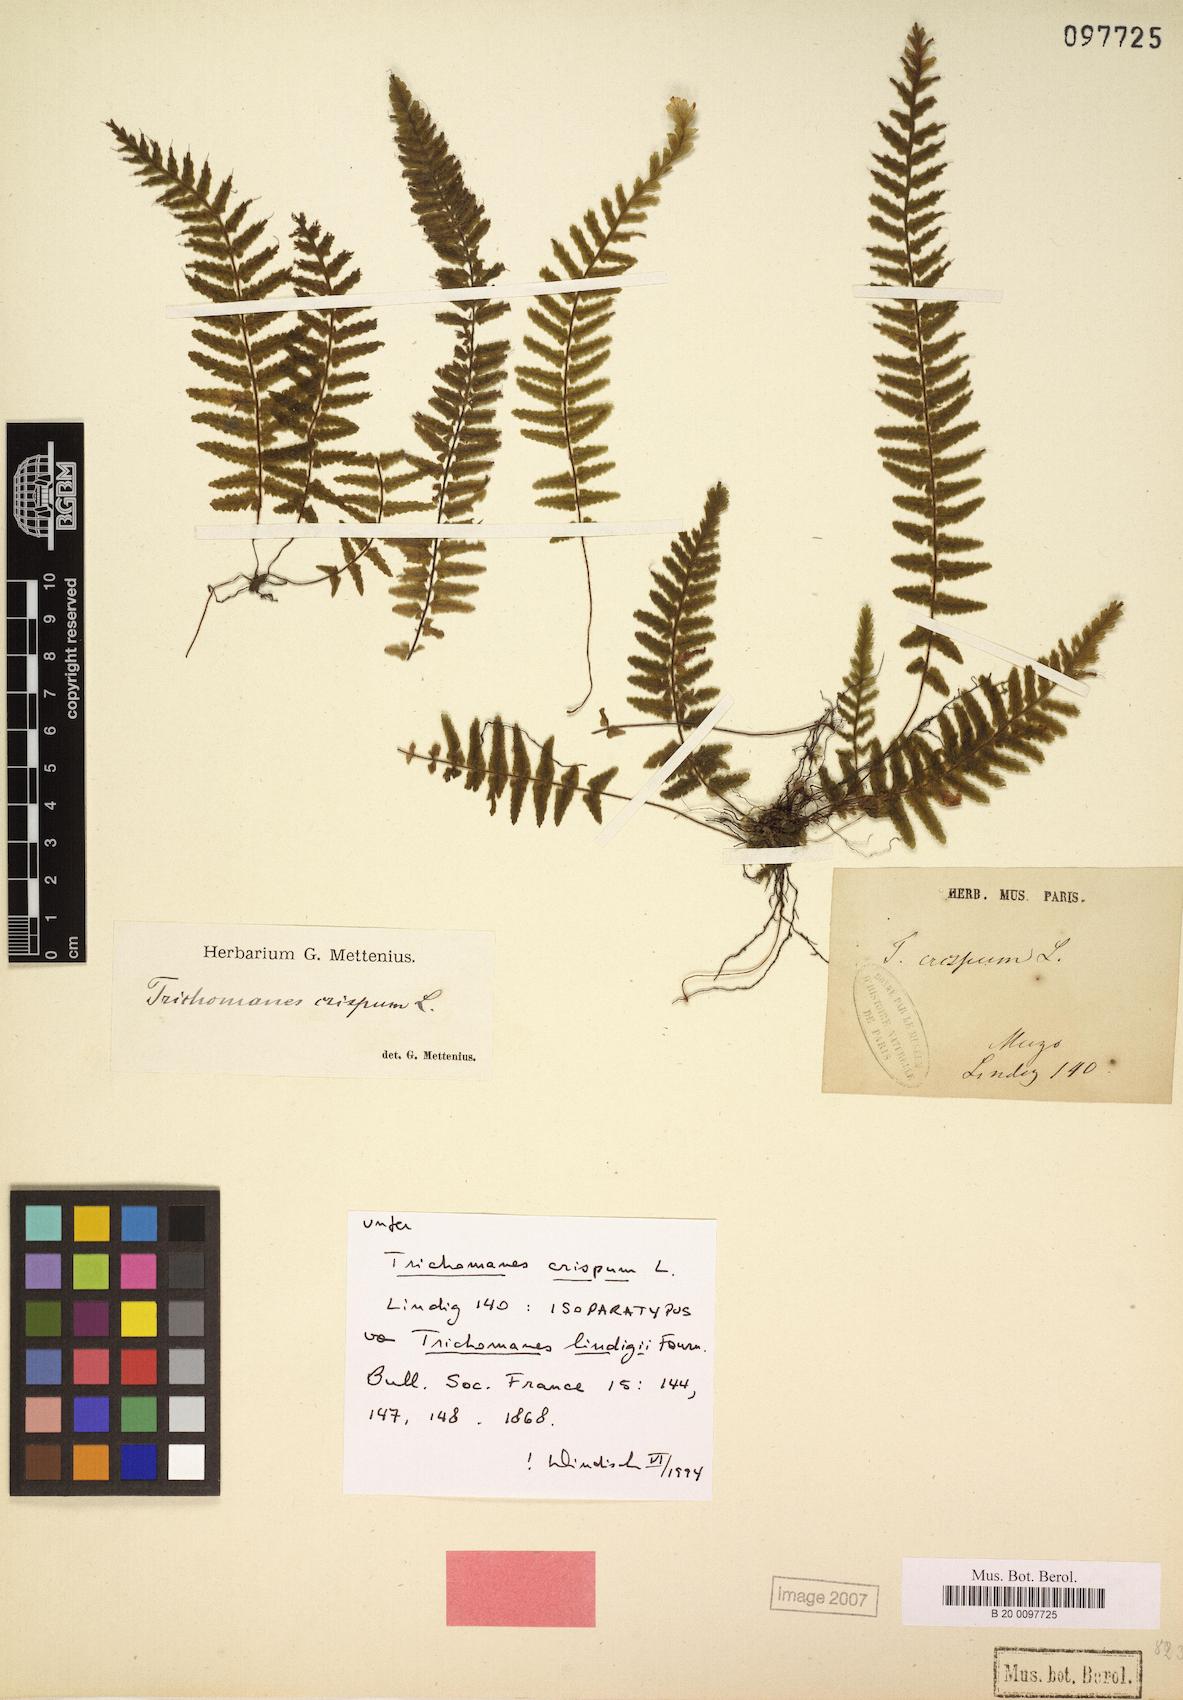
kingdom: Plantae
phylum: Tracheophyta
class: Polypodiopsida
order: Hymenophyllales
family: Hymenophyllaceae
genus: Trichomanes
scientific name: Trichomanes crispum
